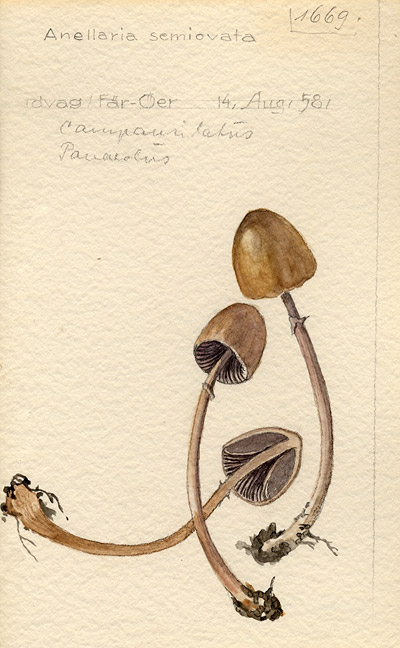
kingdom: Fungi
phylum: Basidiomycota
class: Agaricomycetes
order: Agaricales
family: Bolbitiaceae
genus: Panaeolus
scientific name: Panaeolus semiovatus
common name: Shiny mottlegill
